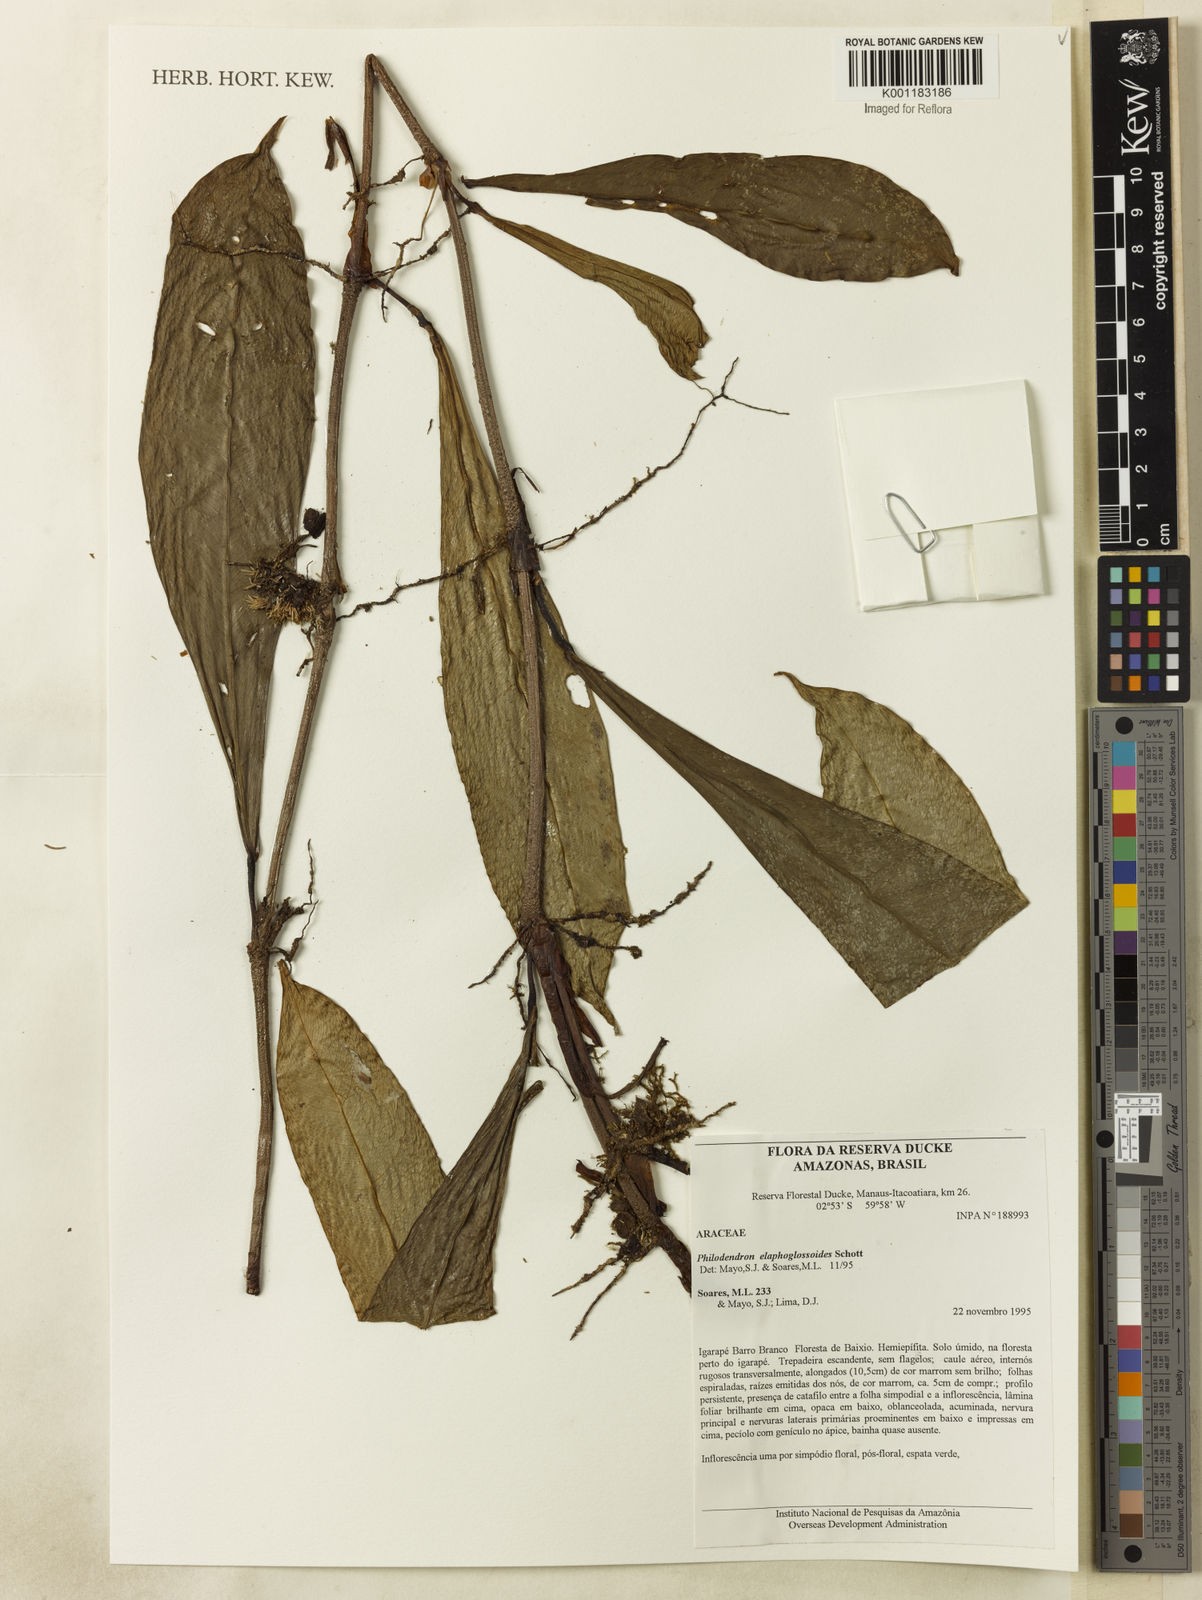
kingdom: Plantae
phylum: Tracheophyta
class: Liliopsida
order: Alismatales
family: Araceae
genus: Philodendron
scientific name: Philodendron elaphoglossoides
